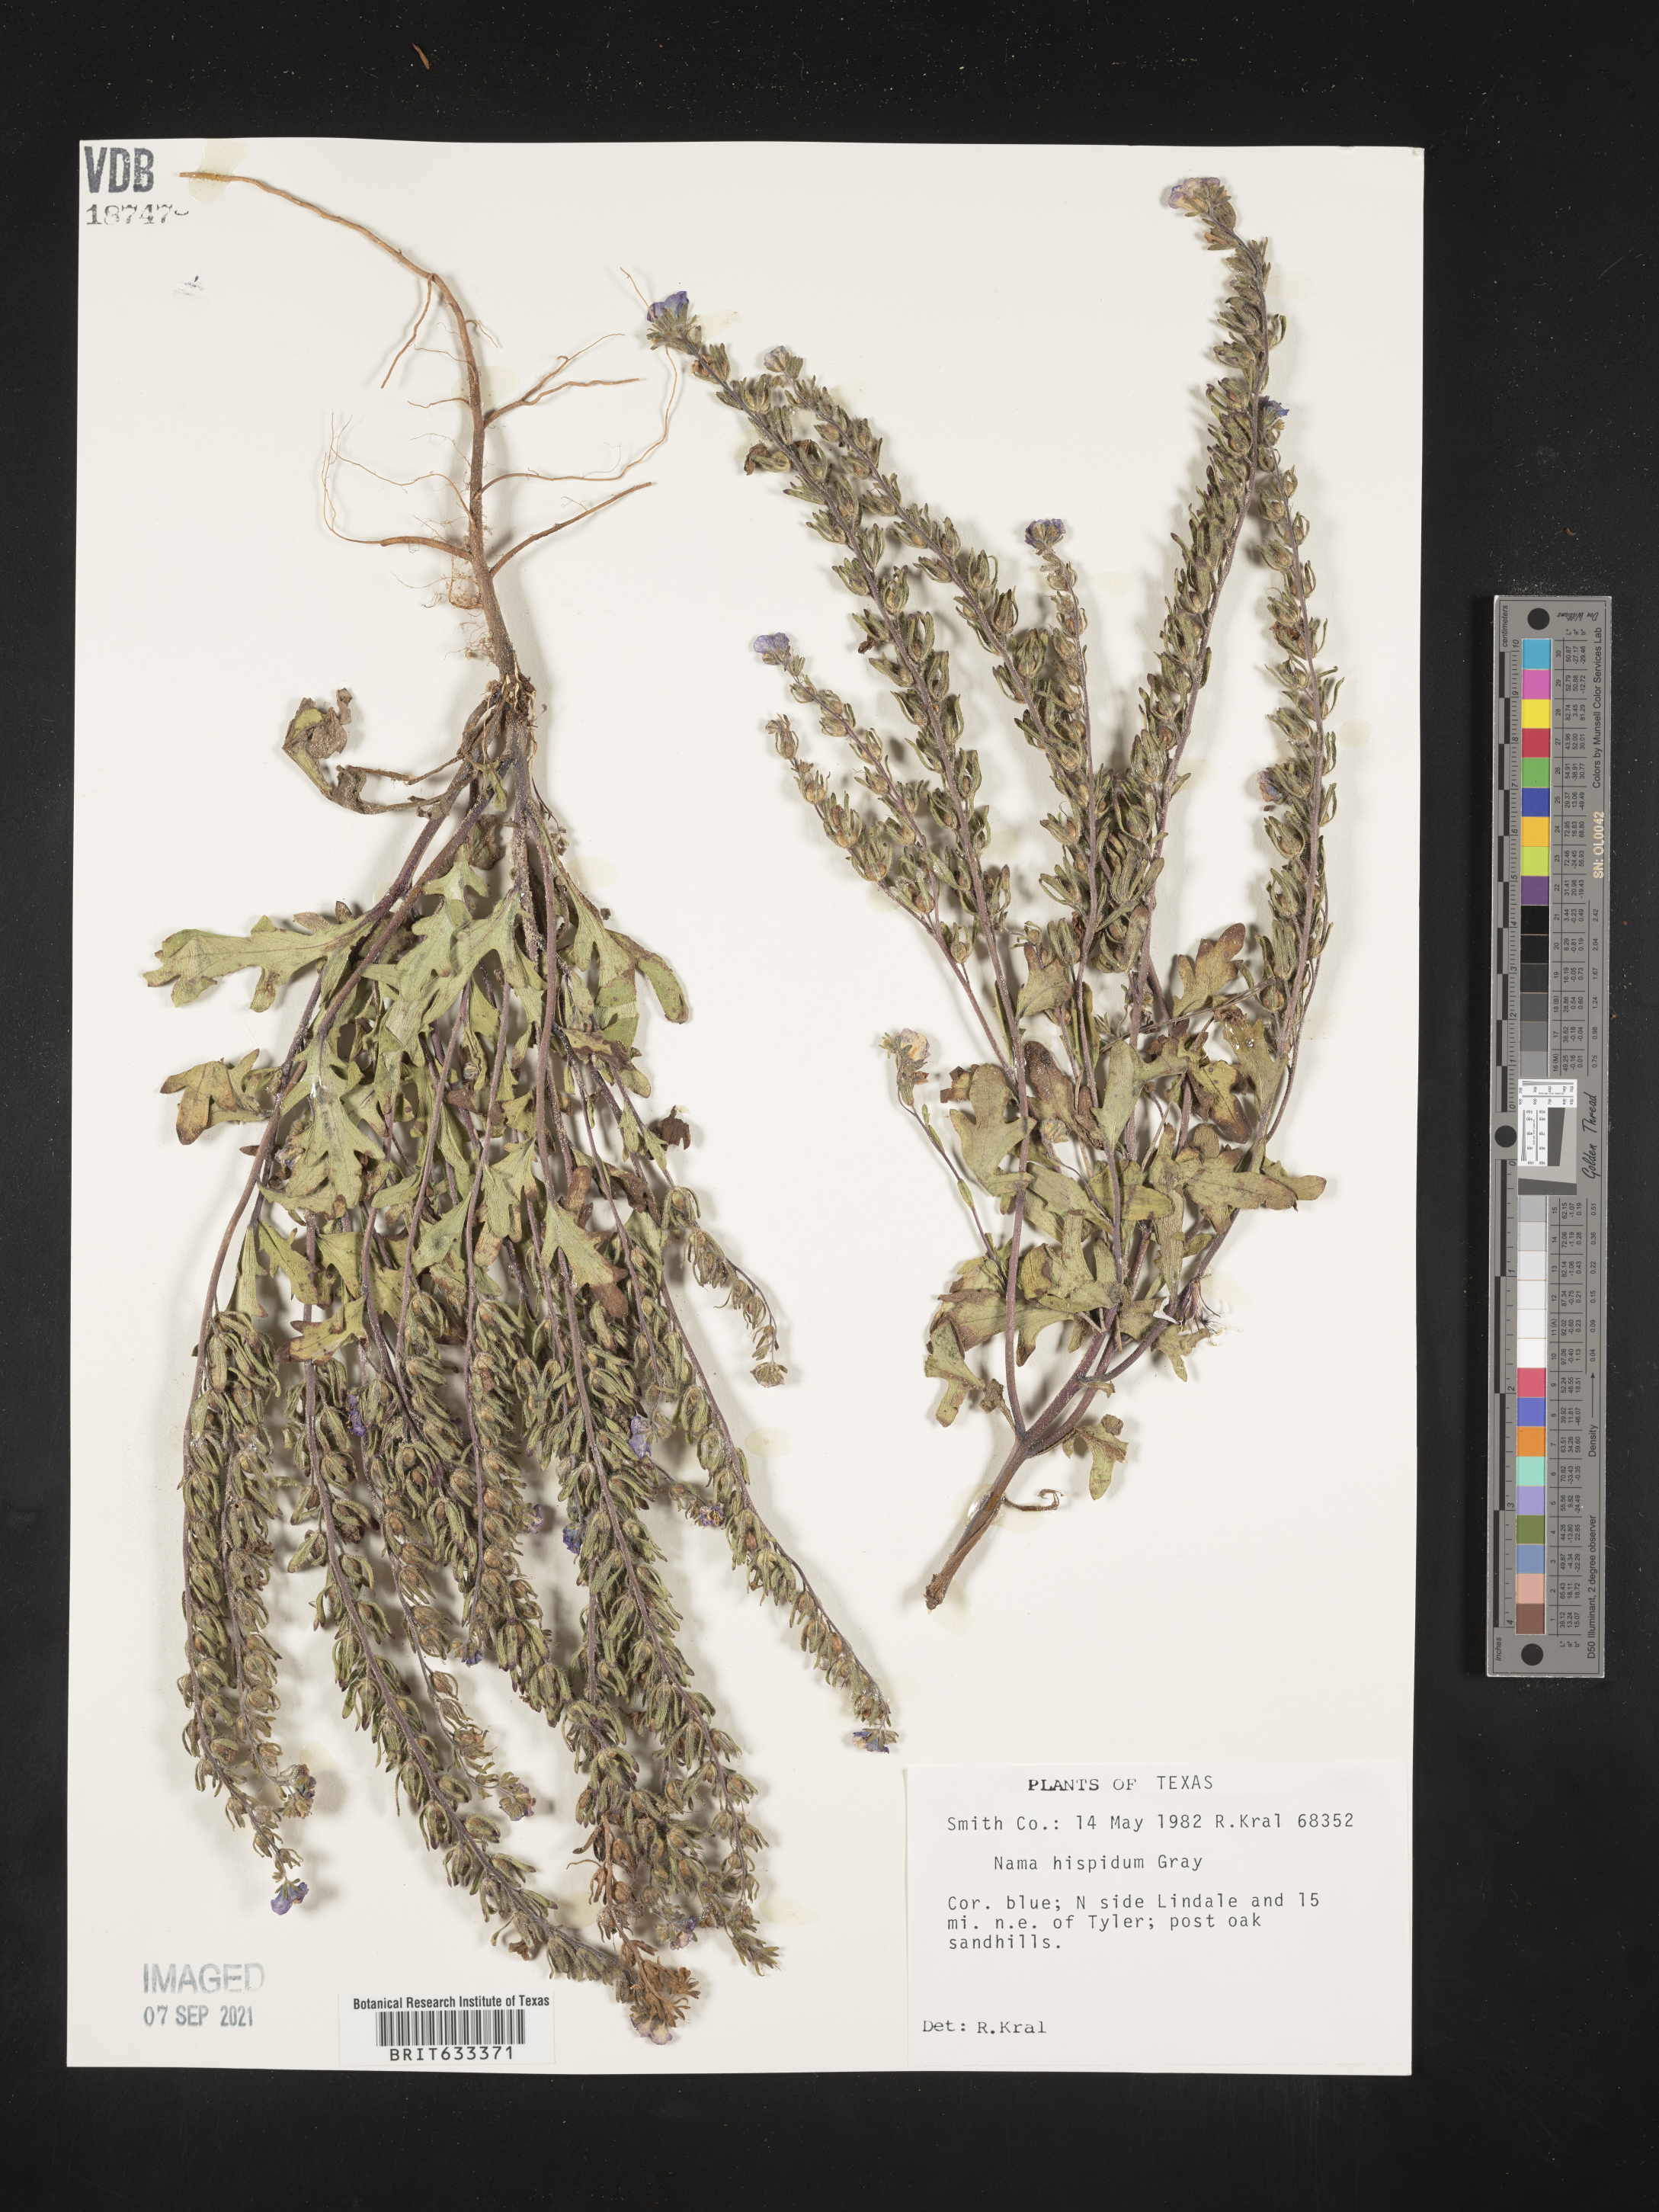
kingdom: Plantae
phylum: Tracheophyta
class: Magnoliopsida
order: Boraginales
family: Namaceae
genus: Nama
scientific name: Nama hispida
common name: Bristly nama
